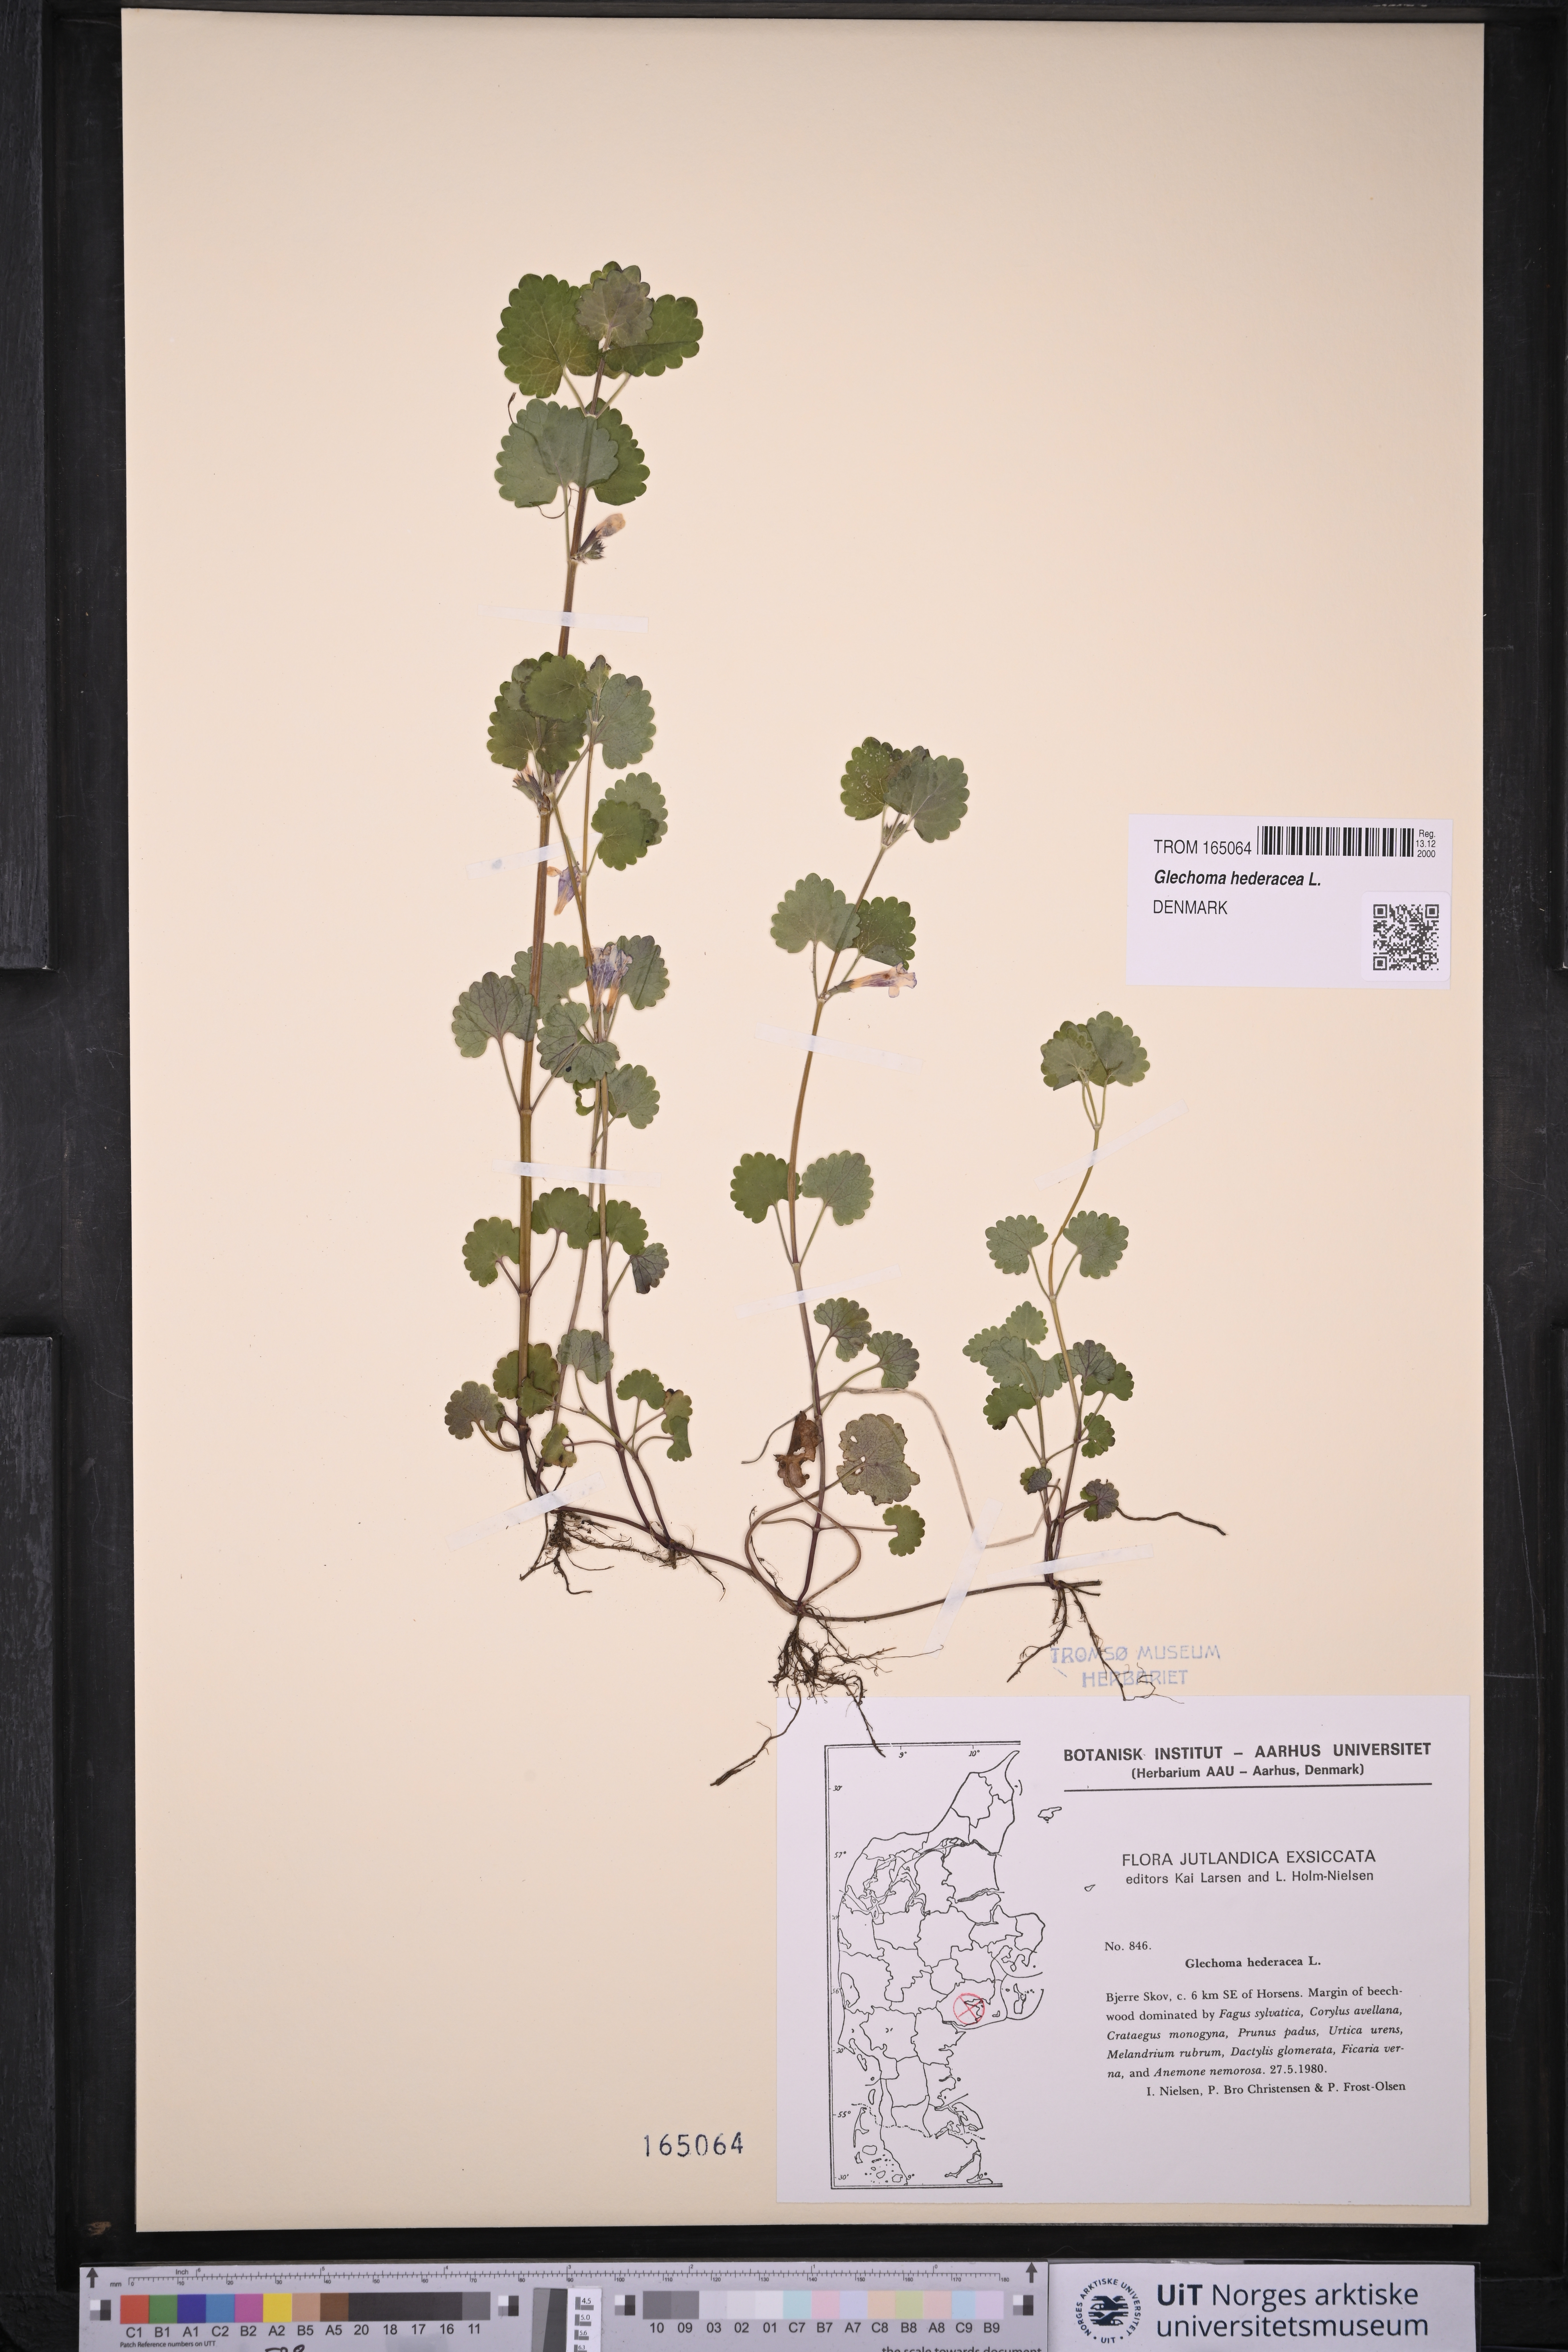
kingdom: Plantae
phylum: Tracheophyta
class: Magnoliopsida
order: Lamiales
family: Lamiaceae
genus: Glechoma
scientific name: Glechoma hederacea
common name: Ground ivy
